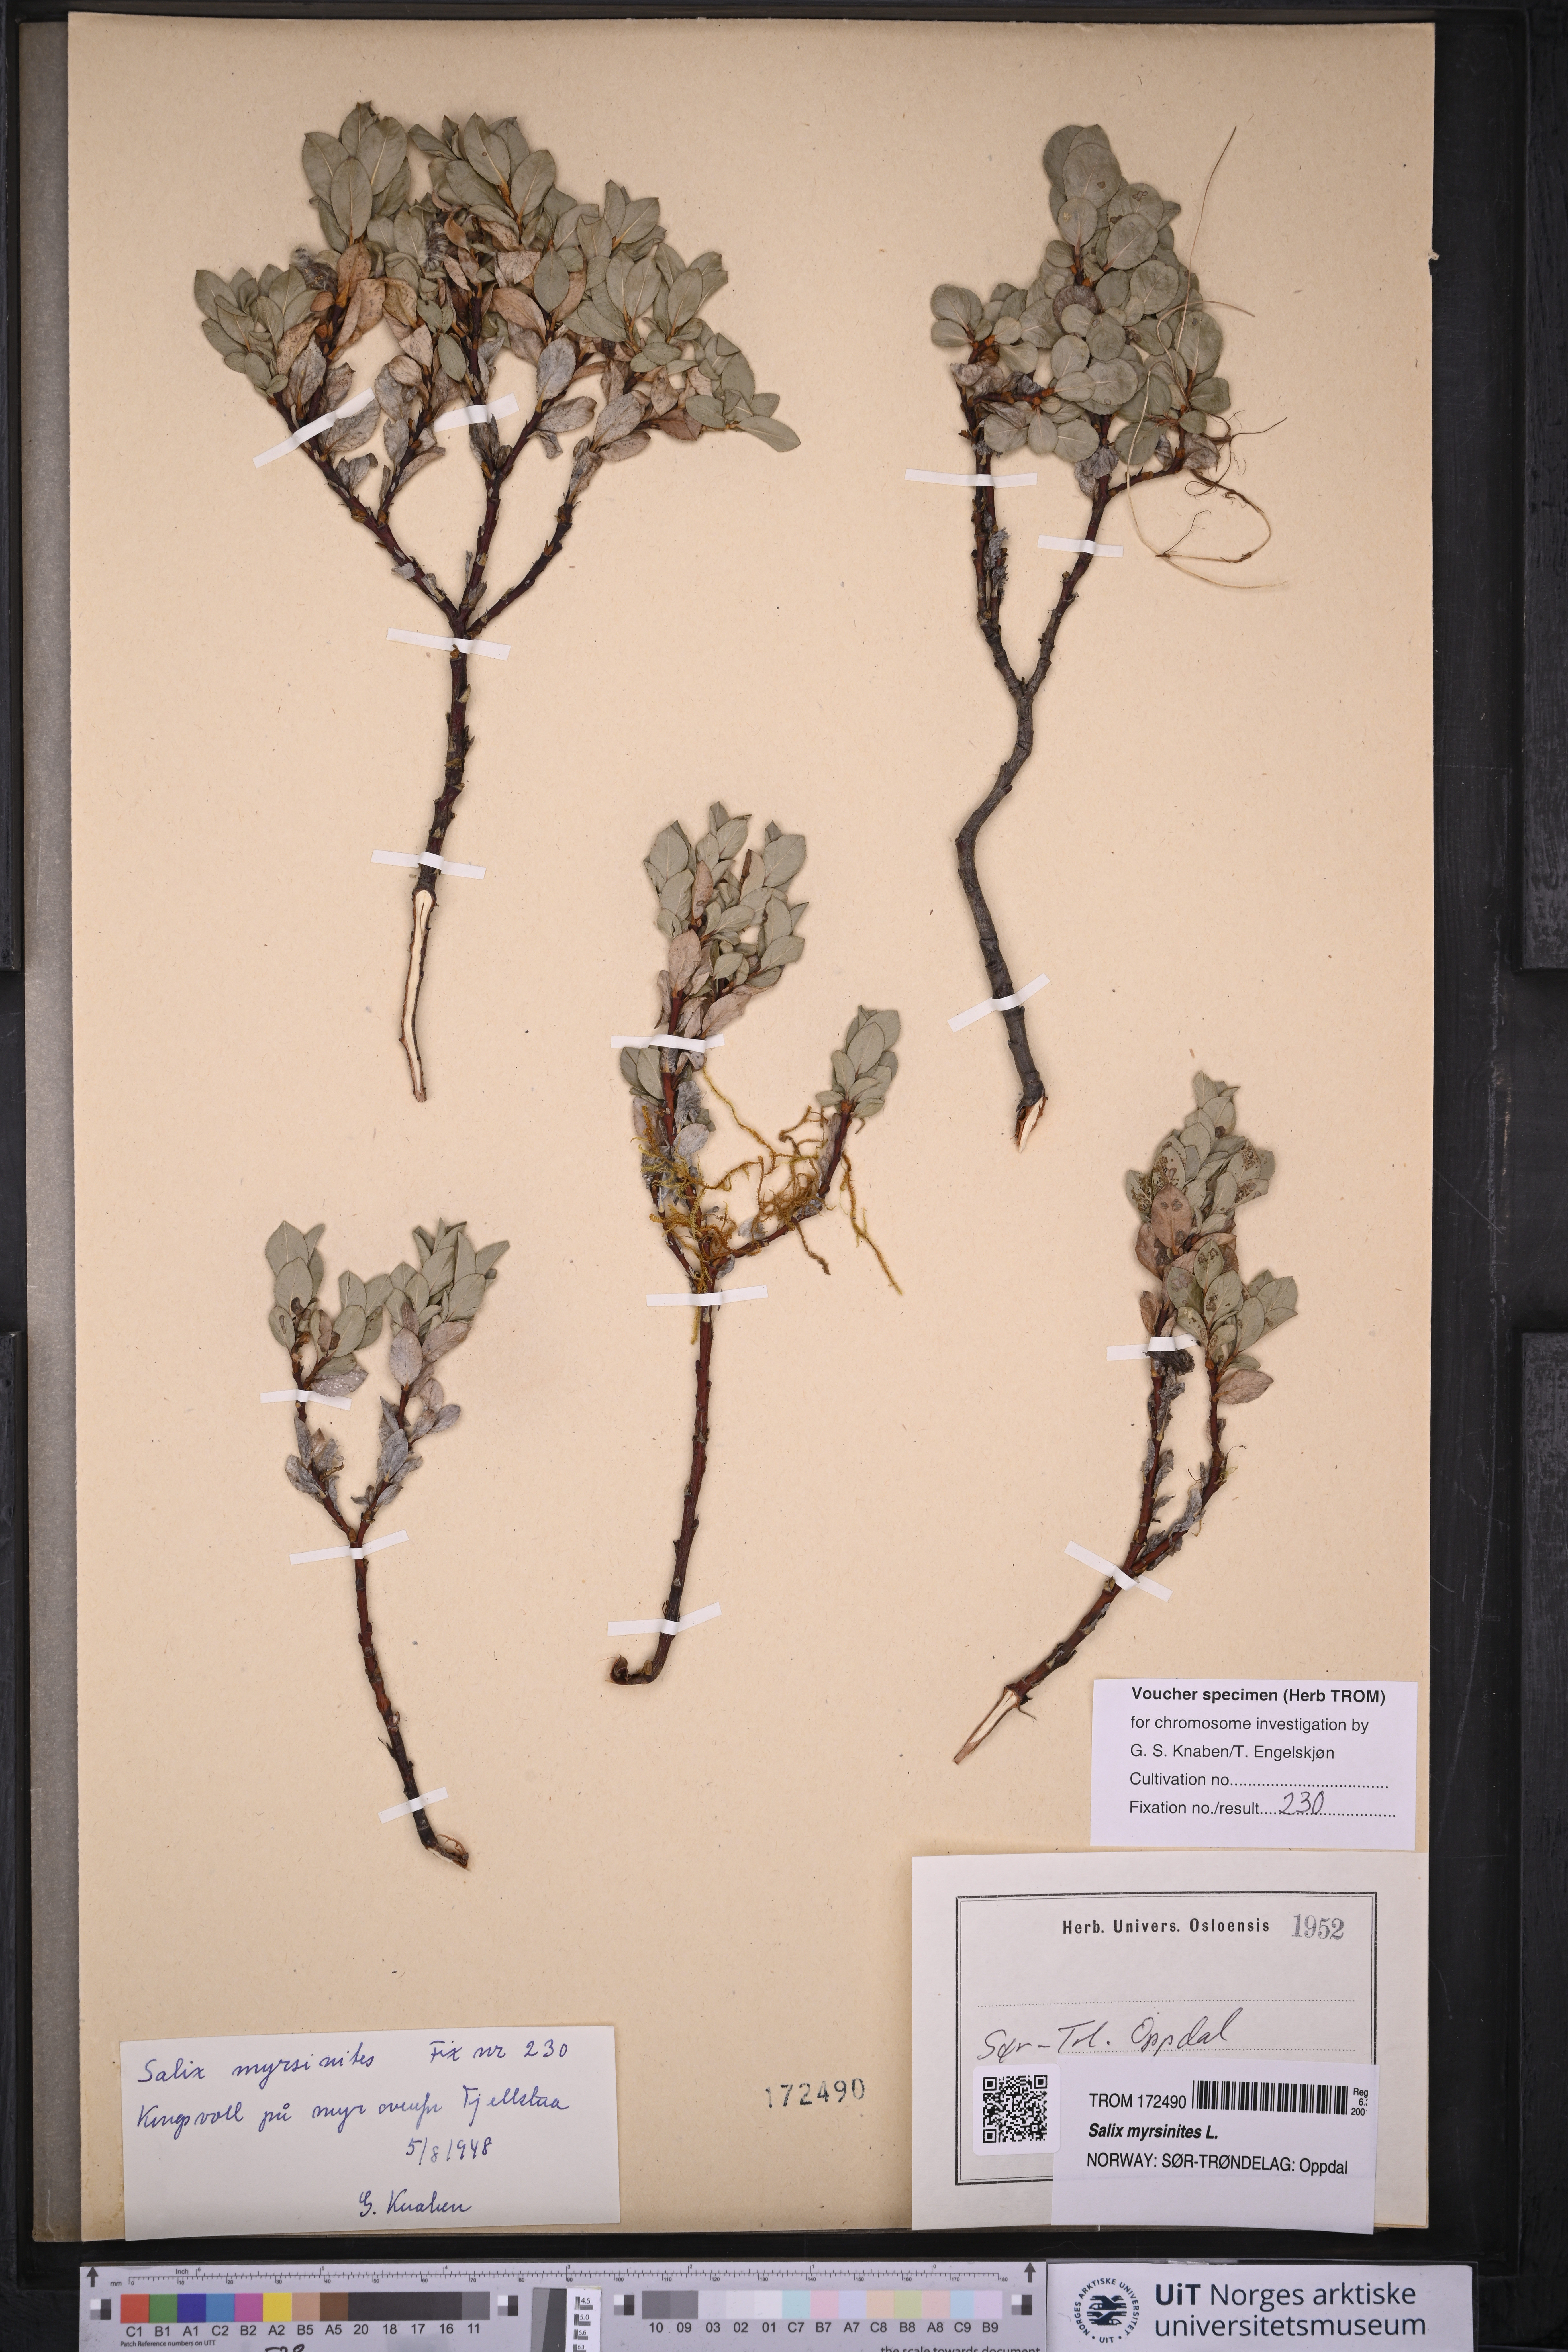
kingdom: Plantae
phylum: Tracheophyta
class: Magnoliopsida
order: Malpighiales
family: Salicaceae
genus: Salix
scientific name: Salix myrsinites
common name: Myrtle willow
